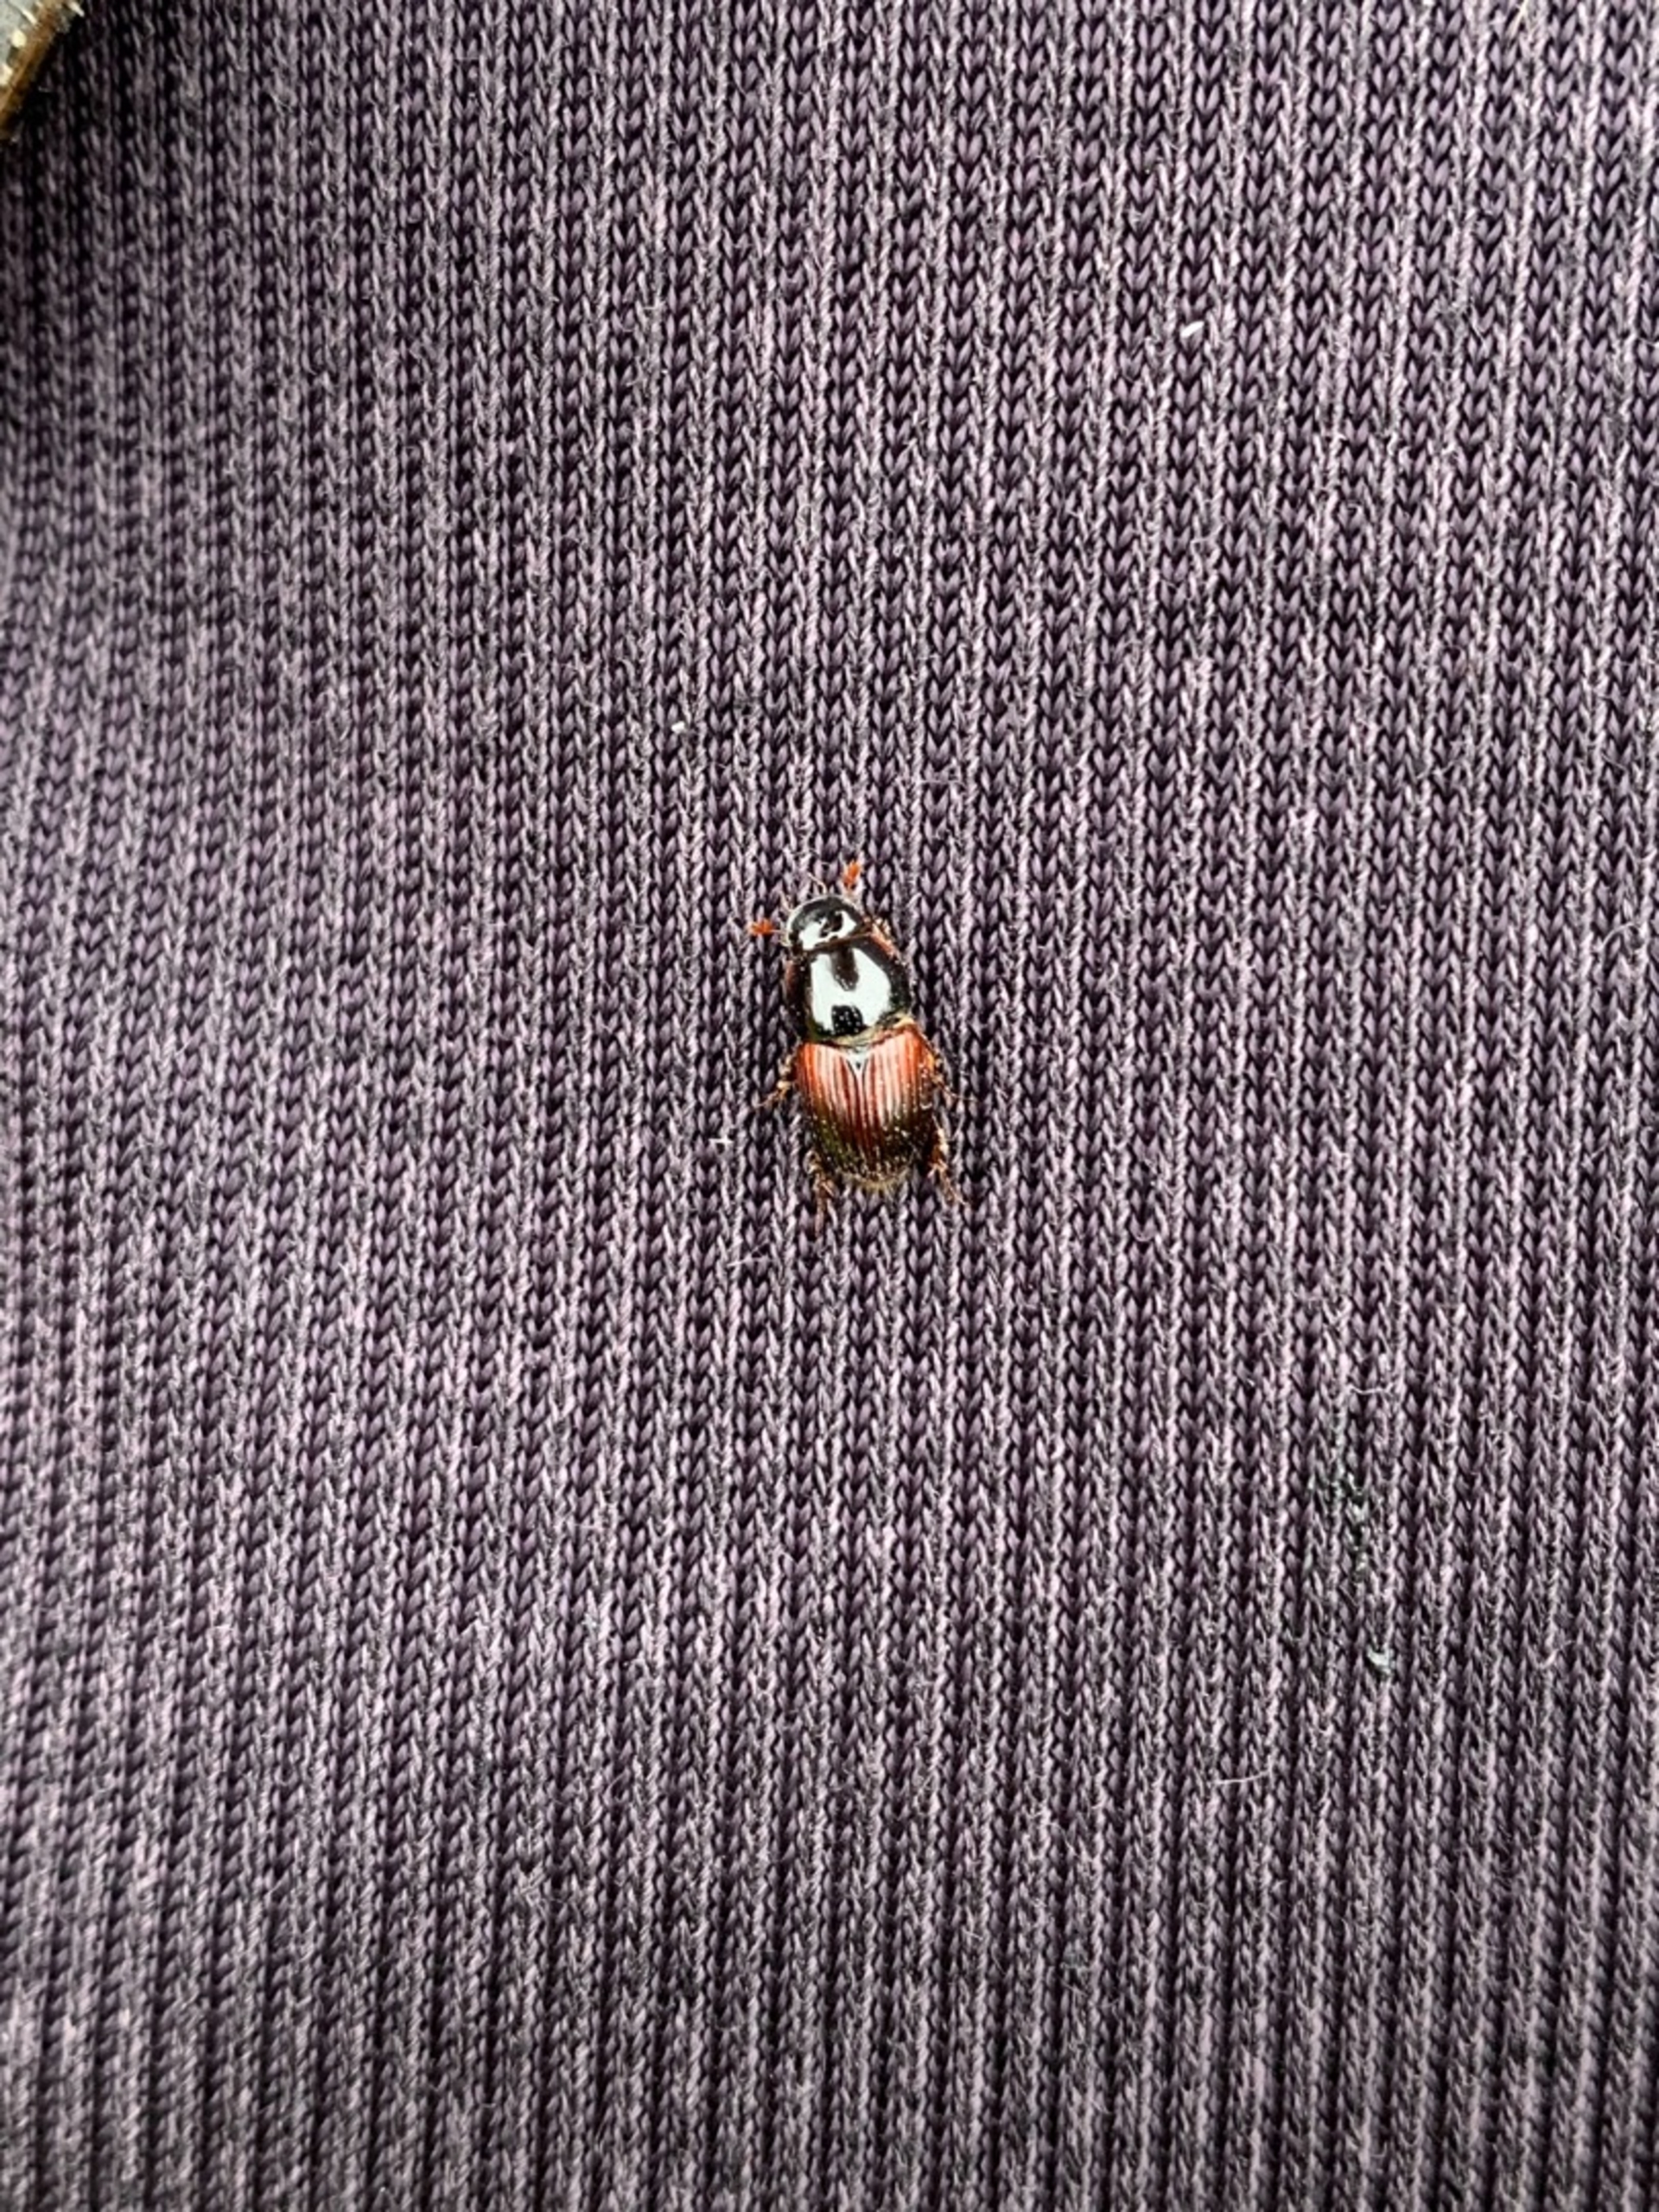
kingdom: Animalia
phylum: Arthropoda
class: Insecta
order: Coleoptera
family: Scarabaeidae
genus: Rhodaphodius
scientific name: Rhodaphodius foetens
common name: Rødbuget møgbille
